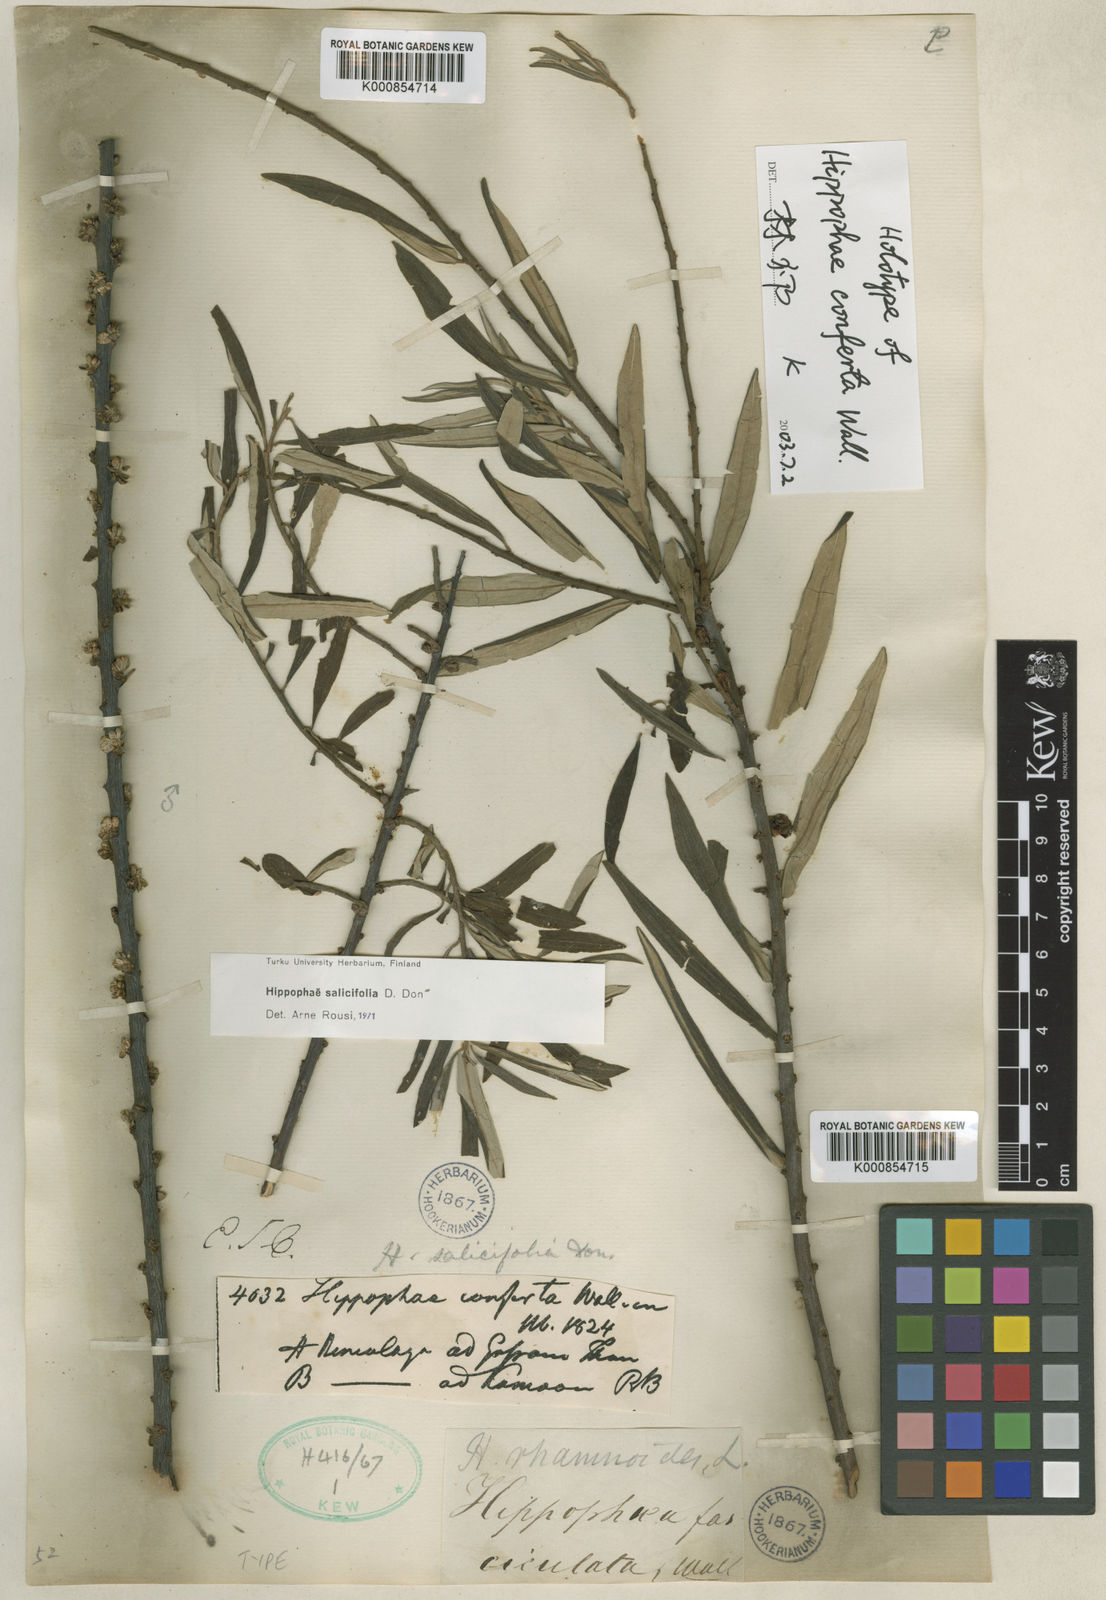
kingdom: Plantae
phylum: Tracheophyta
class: Magnoliopsida
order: Rosales
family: Elaeagnaceae
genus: Hippophae
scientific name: Hippophae salicifolia
